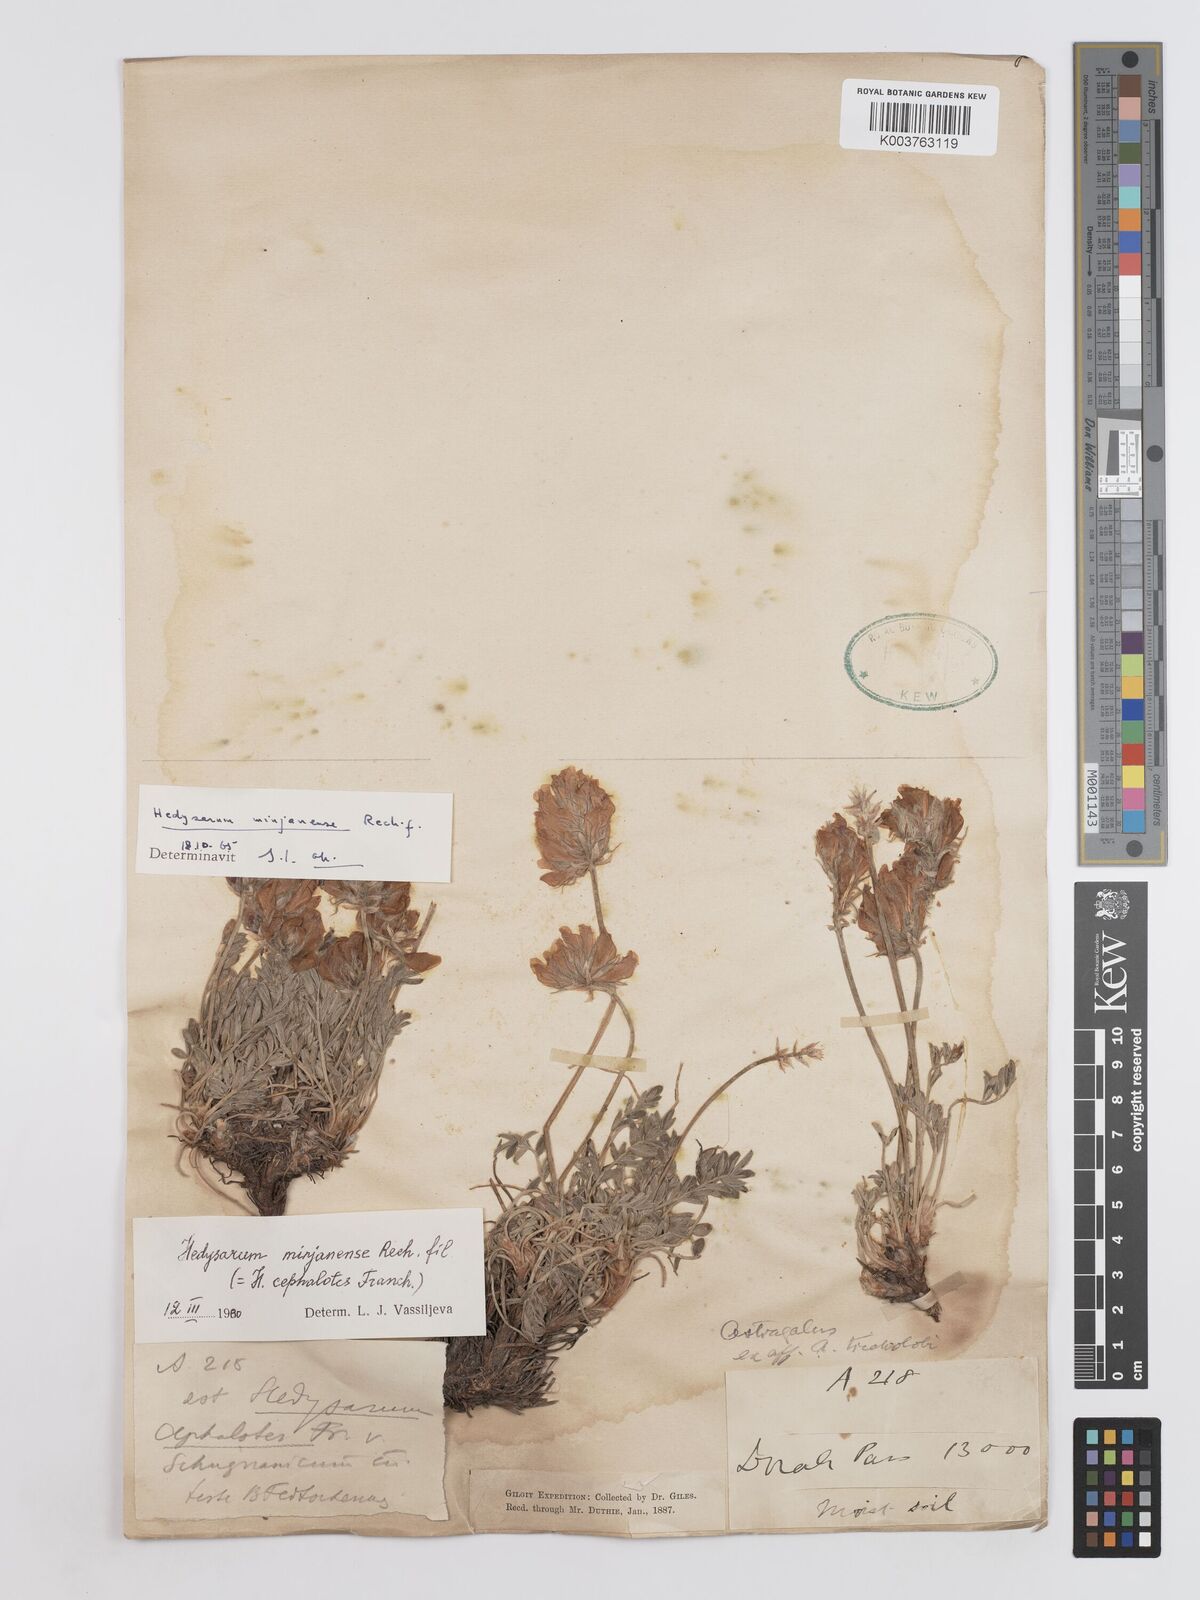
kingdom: Plantae
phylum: Tracheophyta
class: Magnoliopsida
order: Fabales
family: Fabaceae
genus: Hedysarum
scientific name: Hedysarum microcalyx
